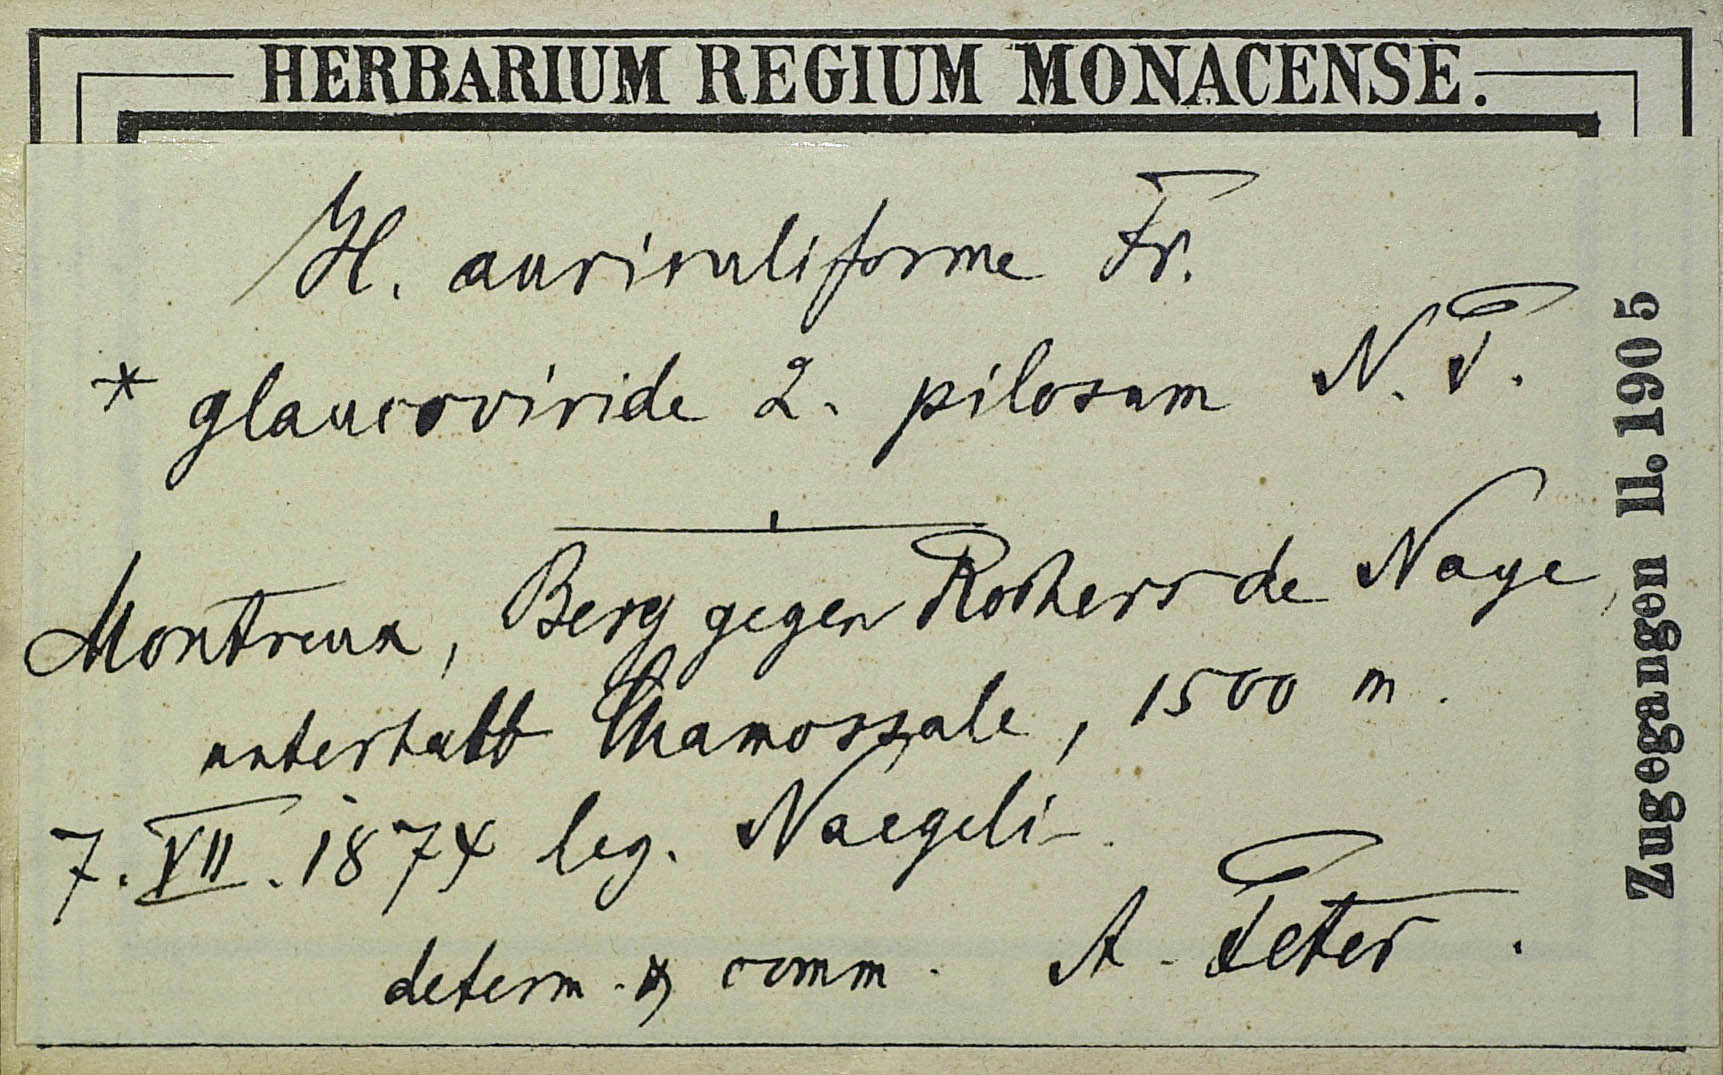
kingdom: Plantae
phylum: Tracheophyta
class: Magnoliopsida
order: Asterales
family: Asteraceae
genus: Pilosella
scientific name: Pilosella auriculiformis
